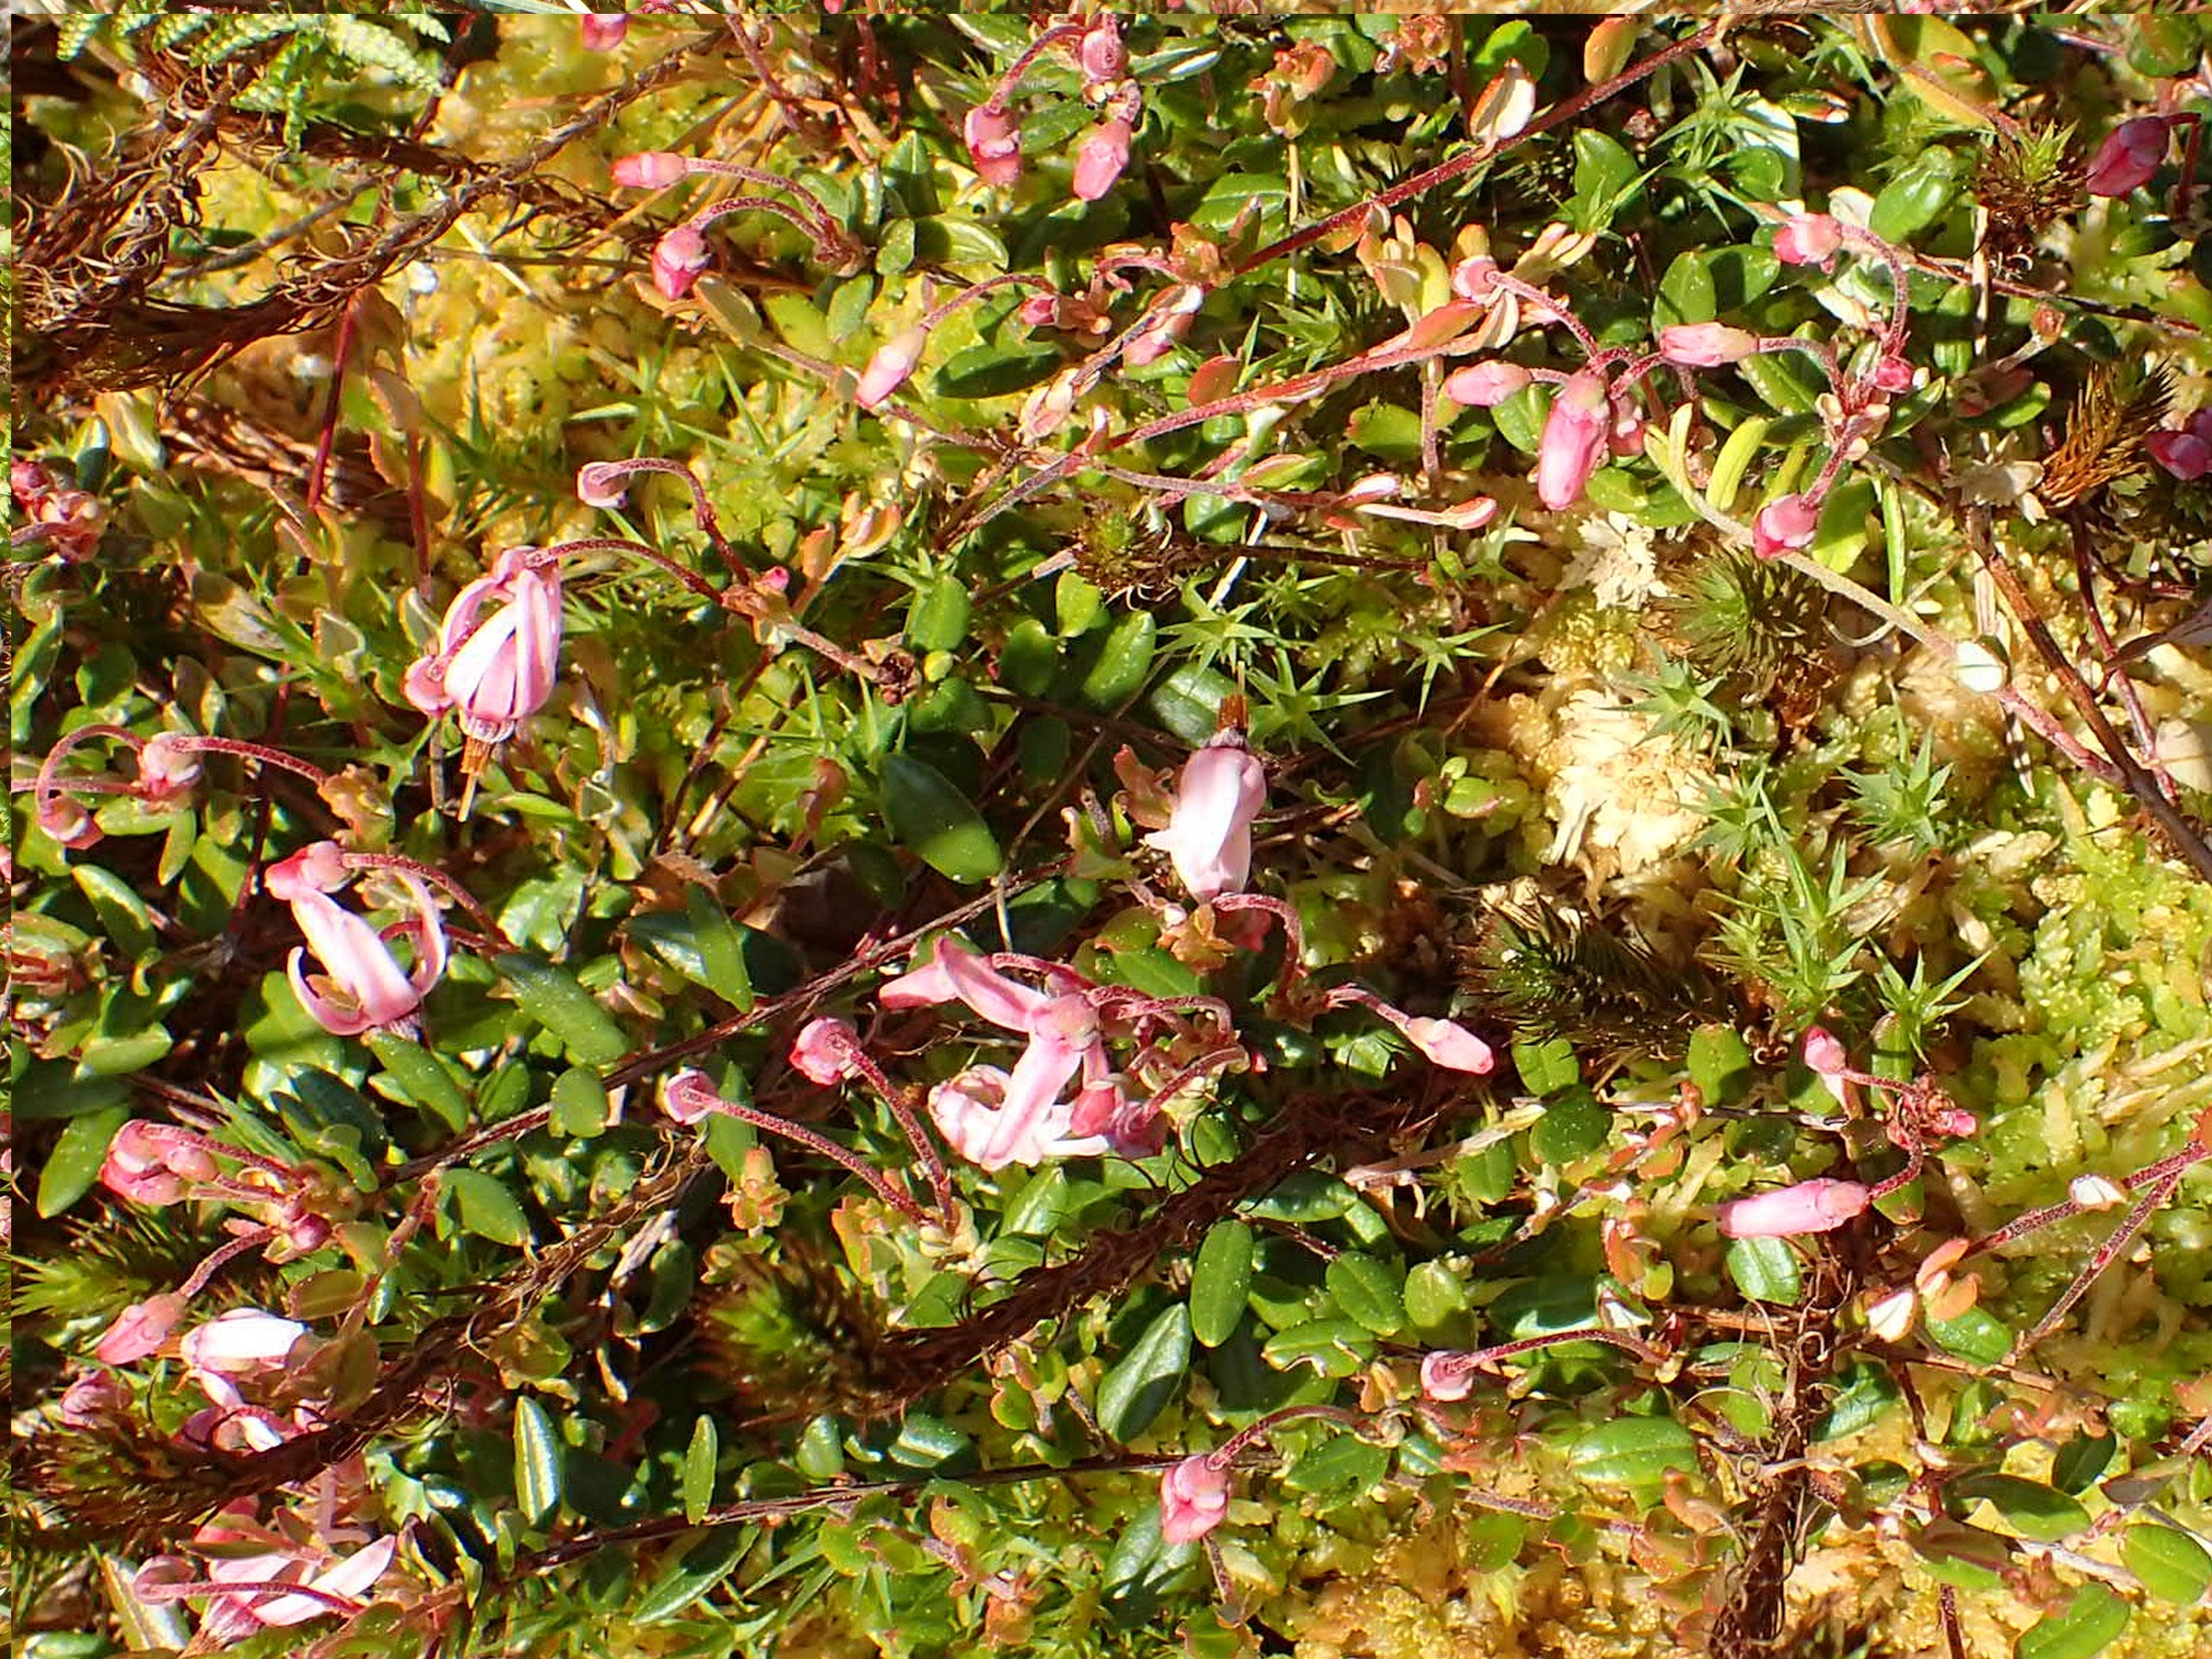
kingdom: Plantae
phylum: Tracheophyta
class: Magnoliopsida
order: Ericales
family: Ericaceae
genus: Vaccinium
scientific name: Vaccinium oxycoccos
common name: Tranebær
